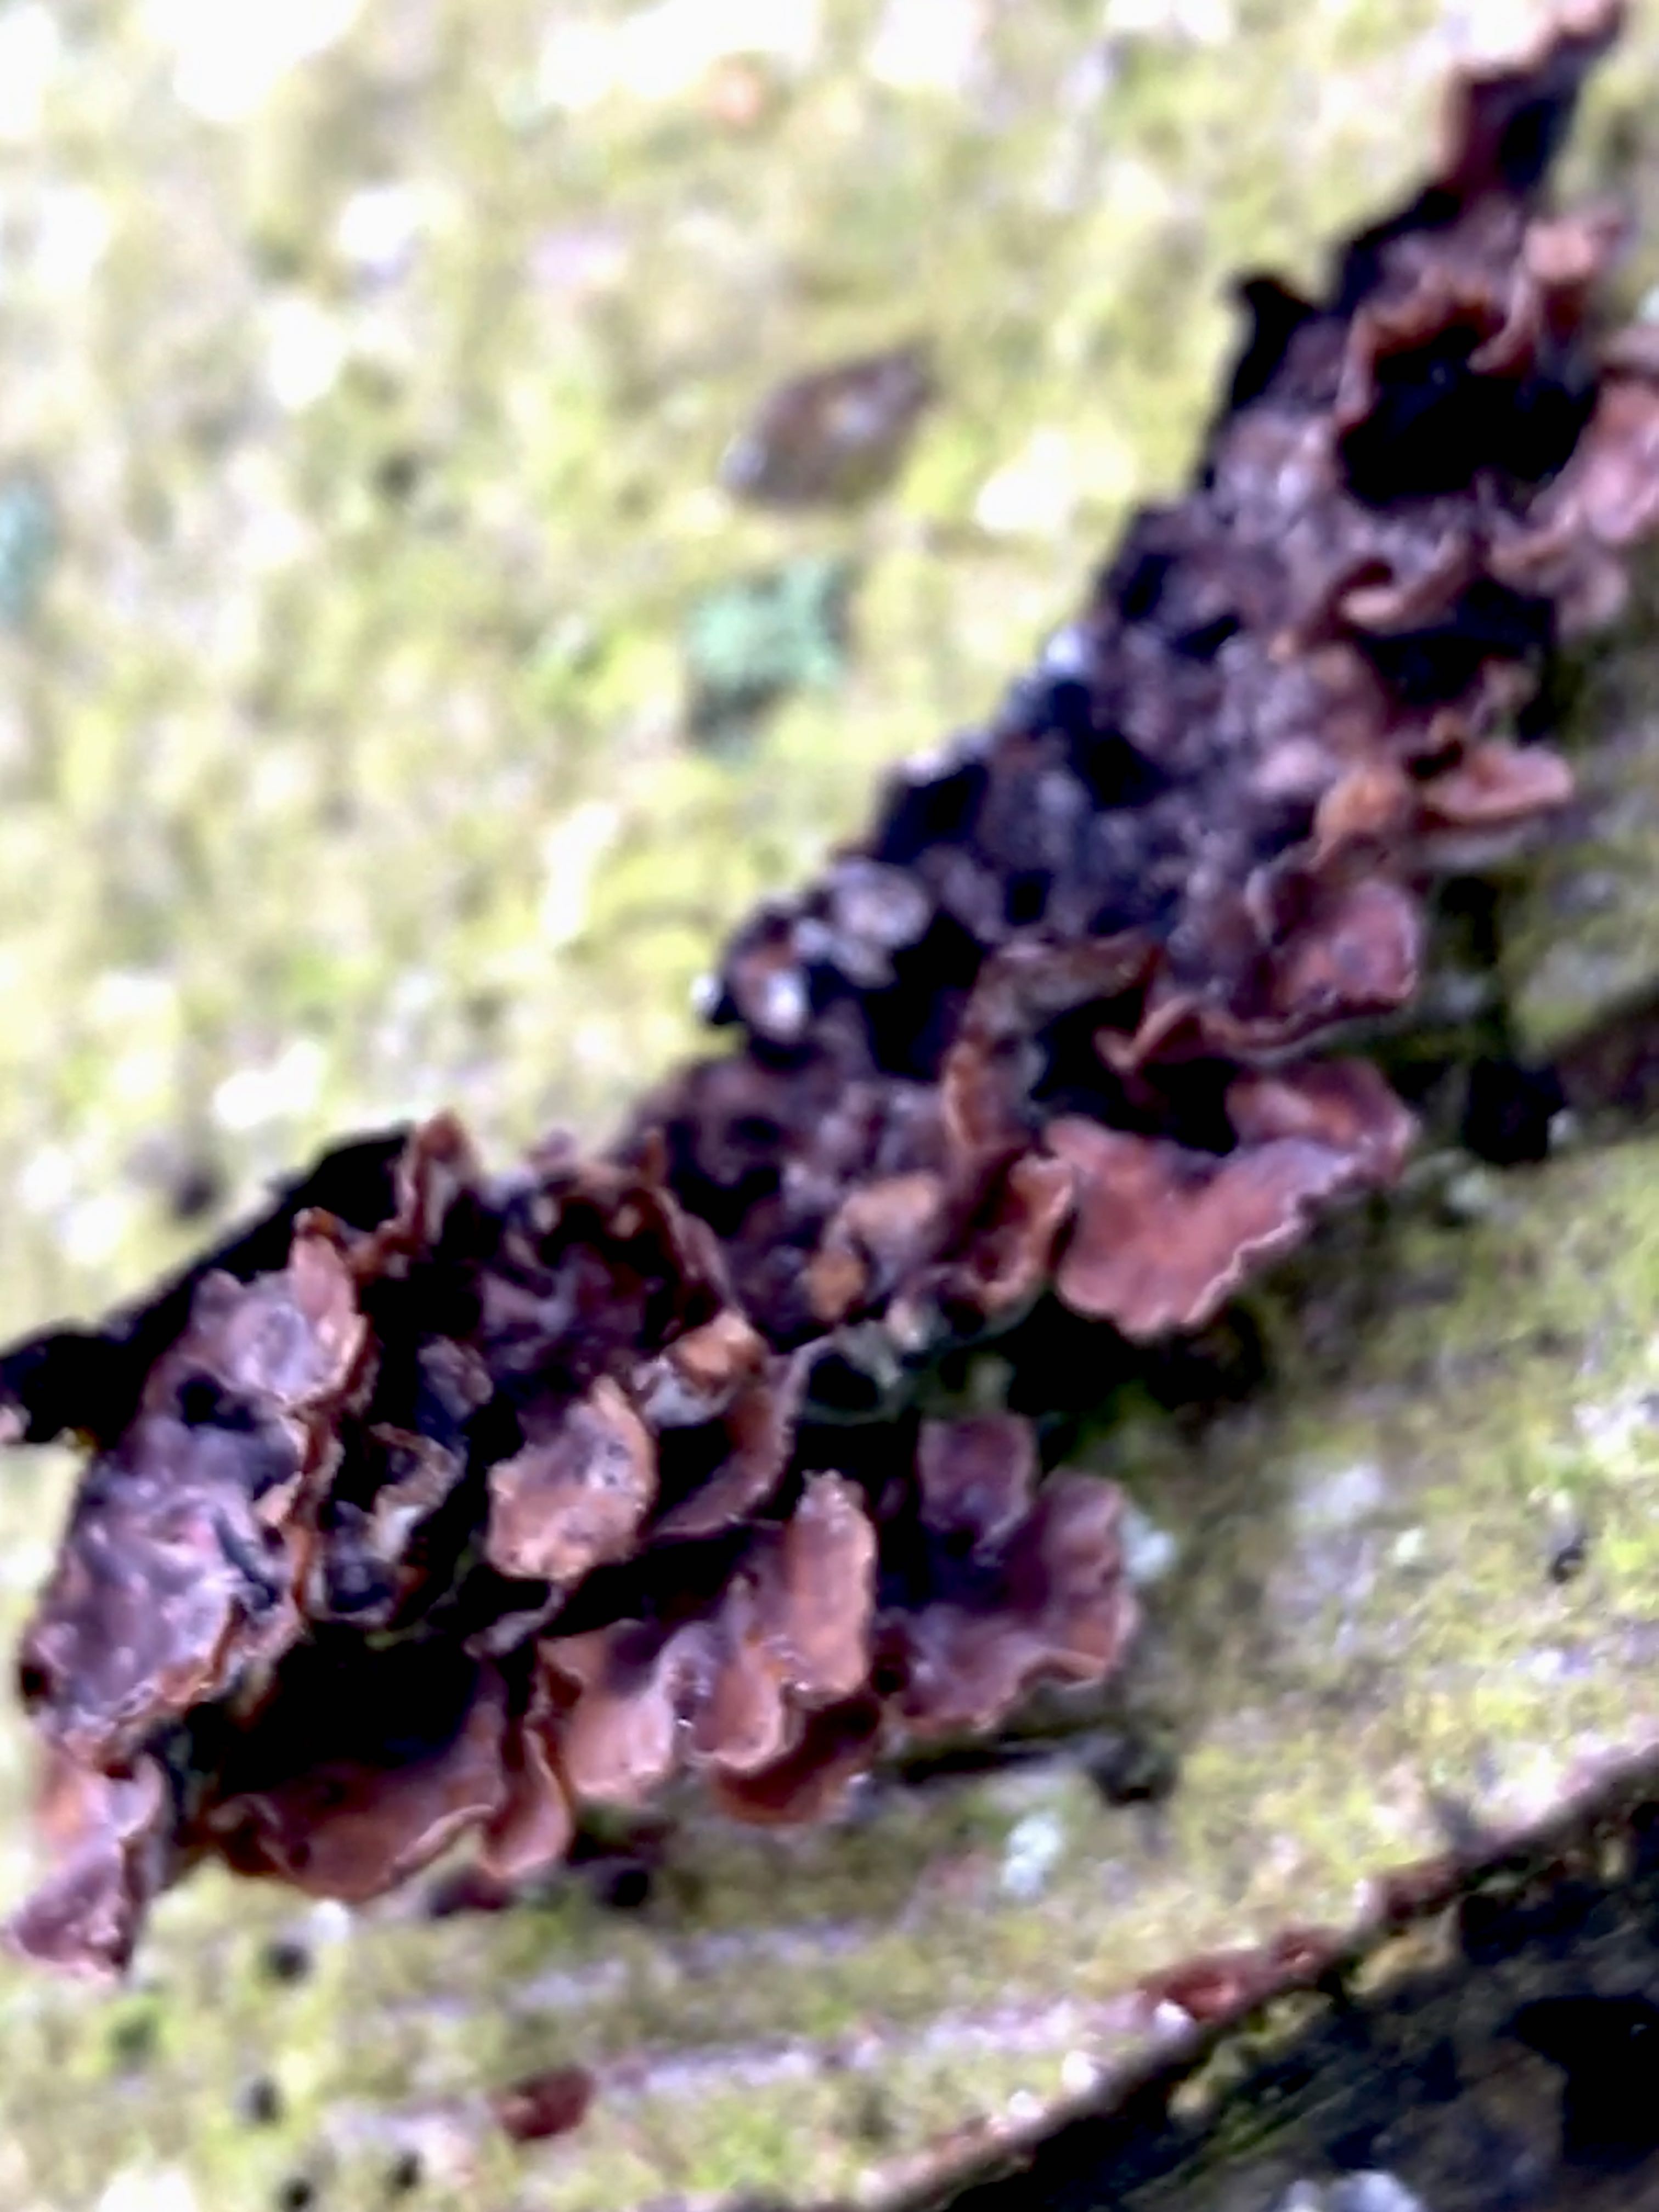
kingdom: Fungi
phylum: Basidiomycota
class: Agaricomycetes
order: Agaricales
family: Cyphellaceae
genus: Chondrostereum
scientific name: Chondrostereum purpureum
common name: purpurlædersvamp
